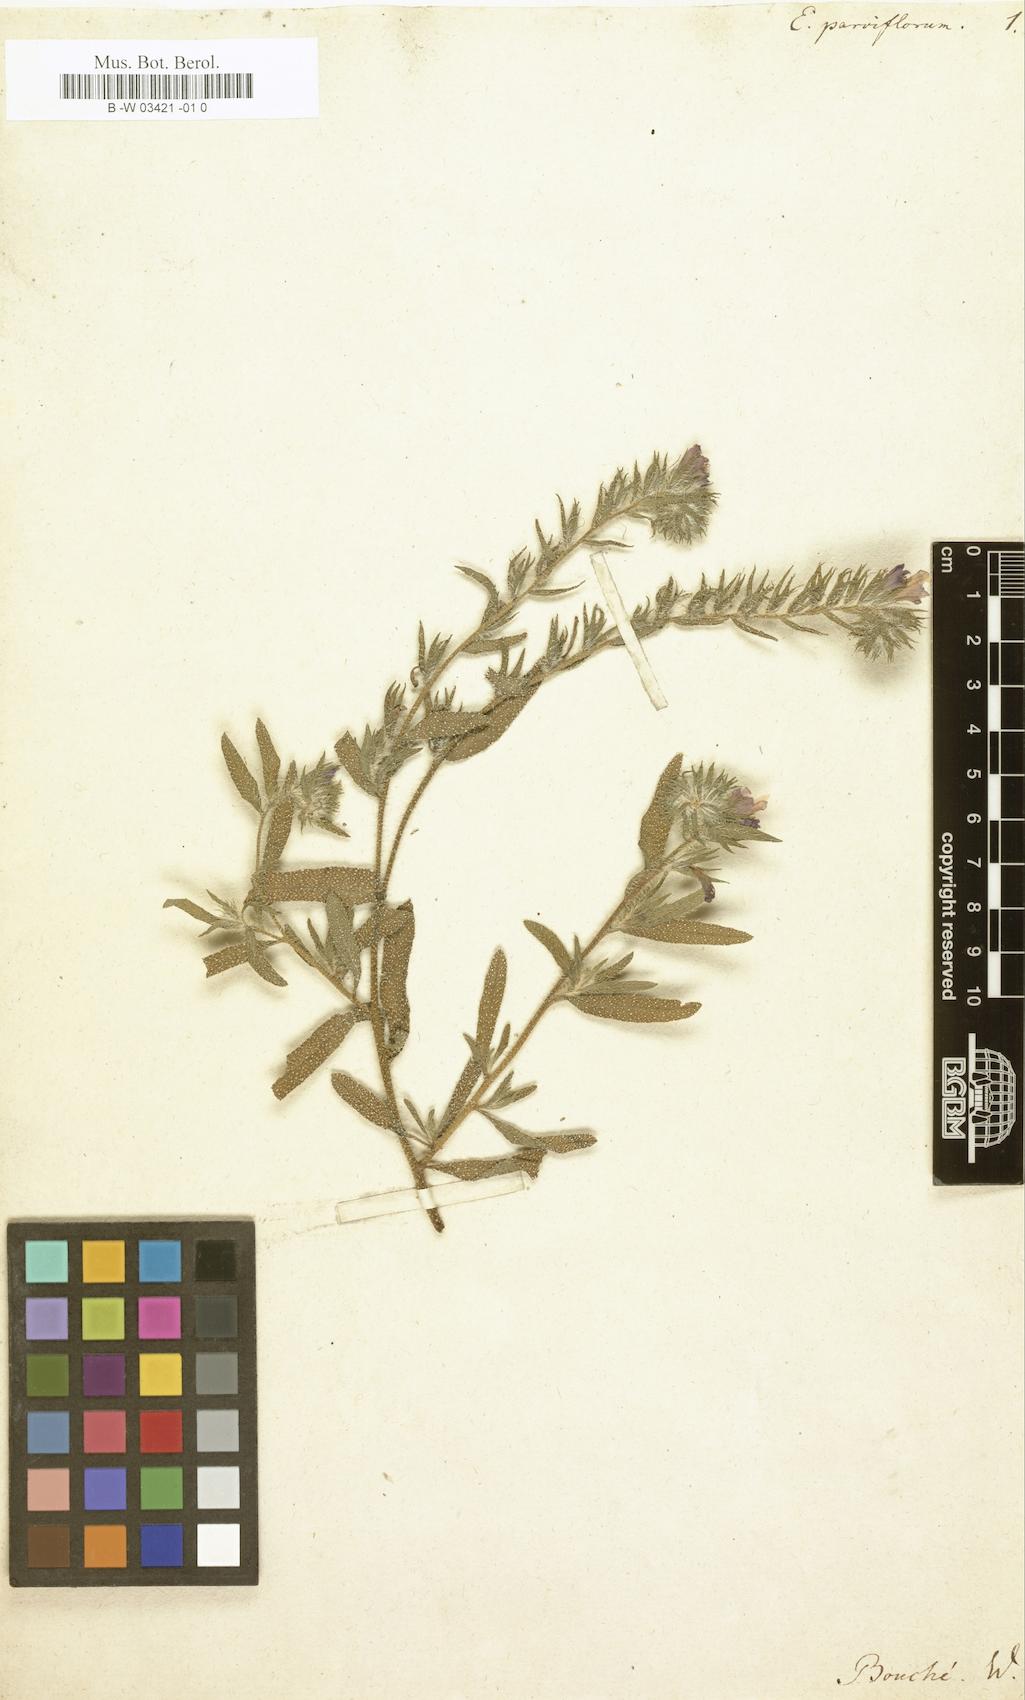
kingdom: Plantae
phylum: Tracheophyta
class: Magnoliopsida
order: Boraginales
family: Boraginaceae
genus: Echium
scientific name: Echium parviflorum
